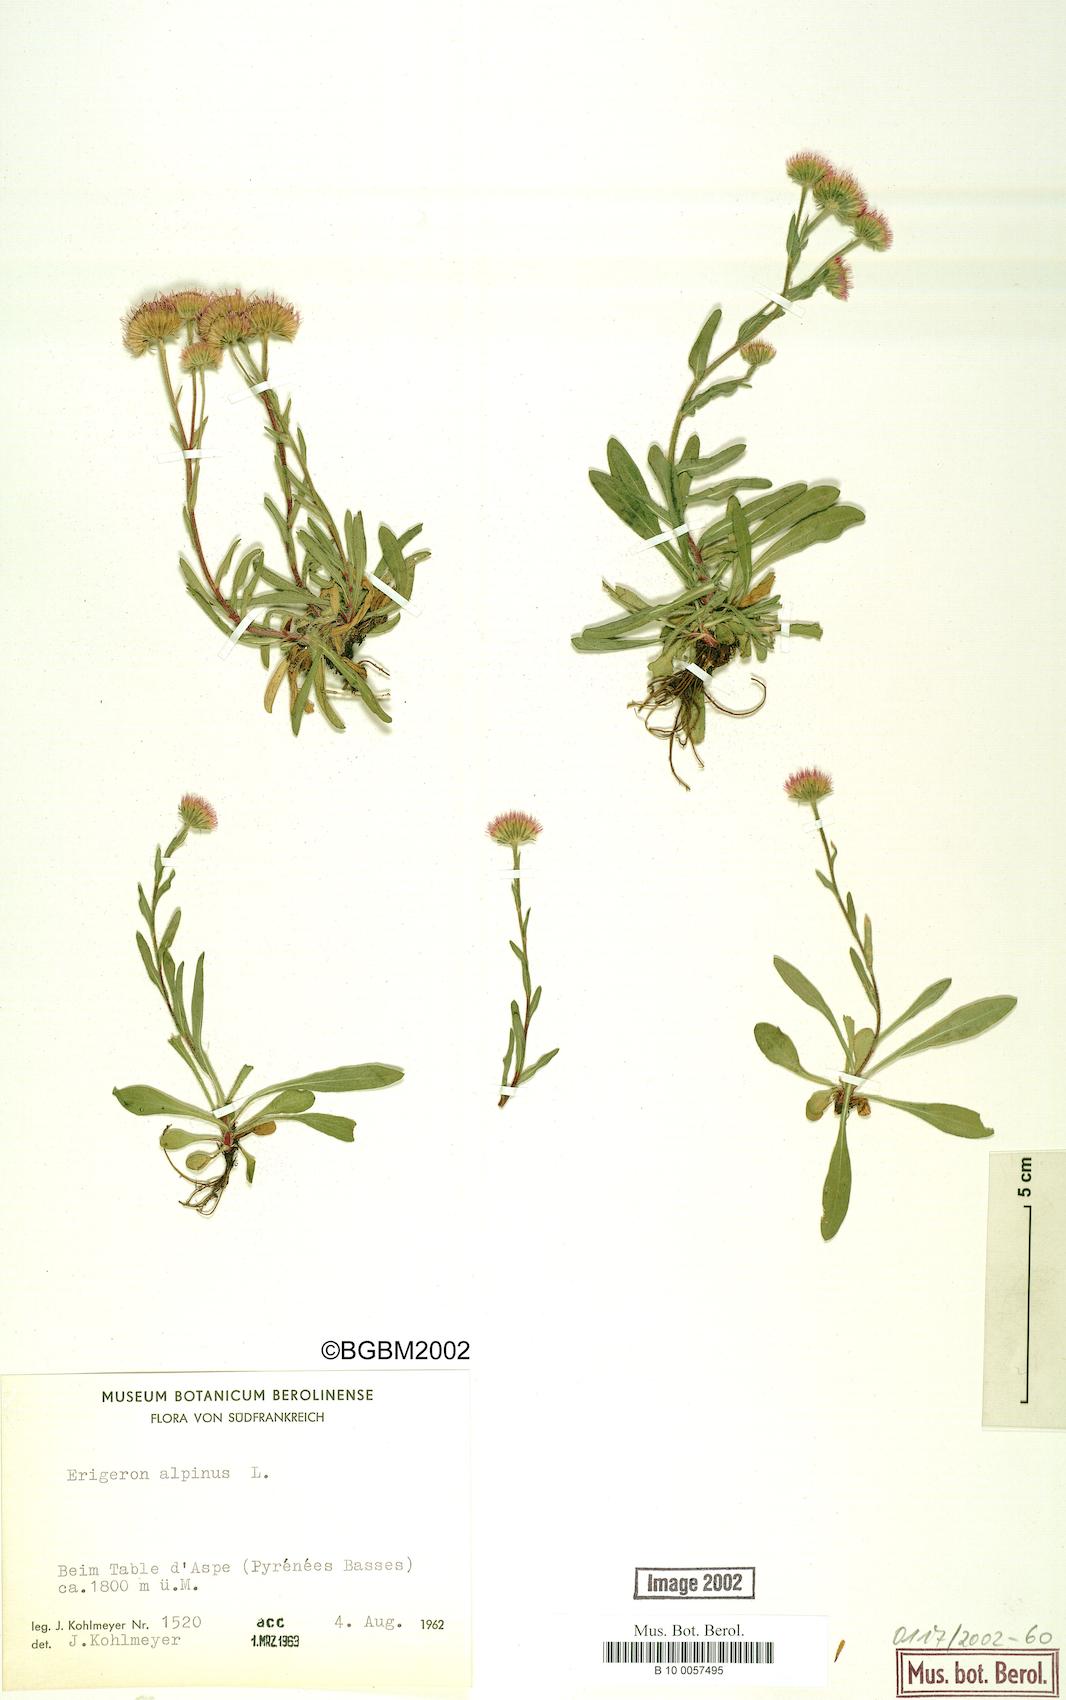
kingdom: Plantae
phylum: Tracheophyta
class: Magnoliopsida
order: Asterales
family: Asteraceae
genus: Erigeron
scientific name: Erigeron alpinus
